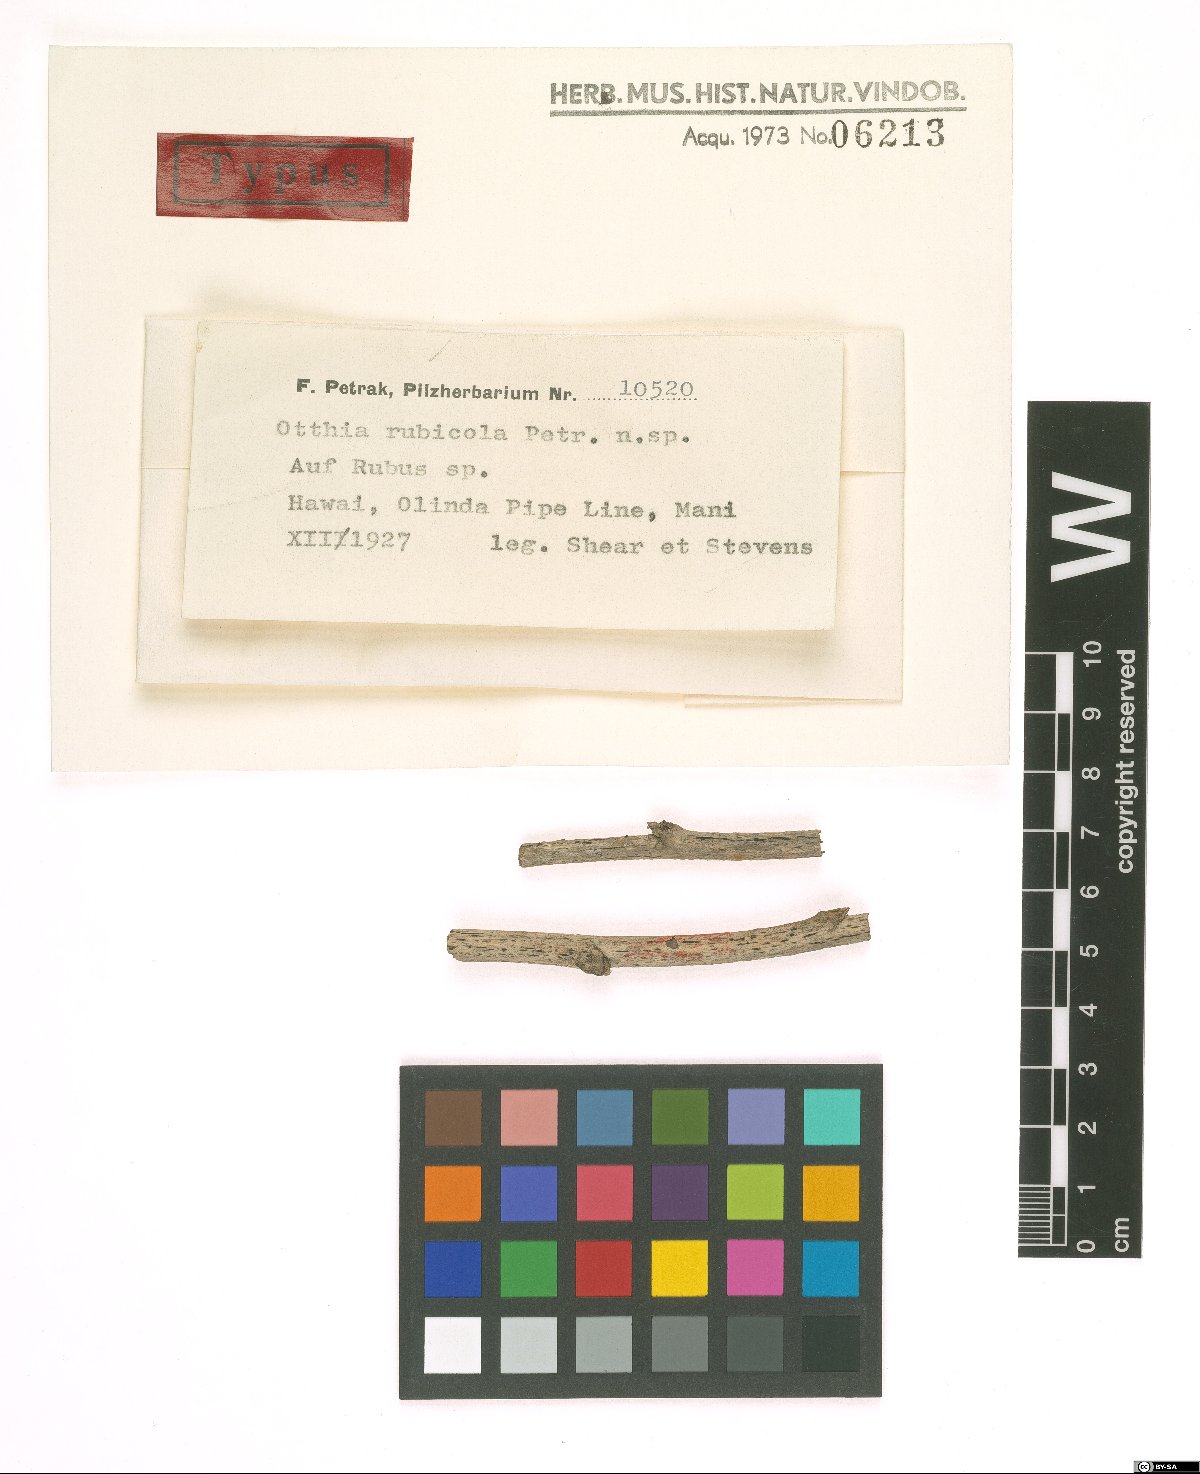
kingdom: Fungi
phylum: Ascomycota
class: Dothideomycetes
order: Dothideales
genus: Otthia
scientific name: Otthia rubicola
